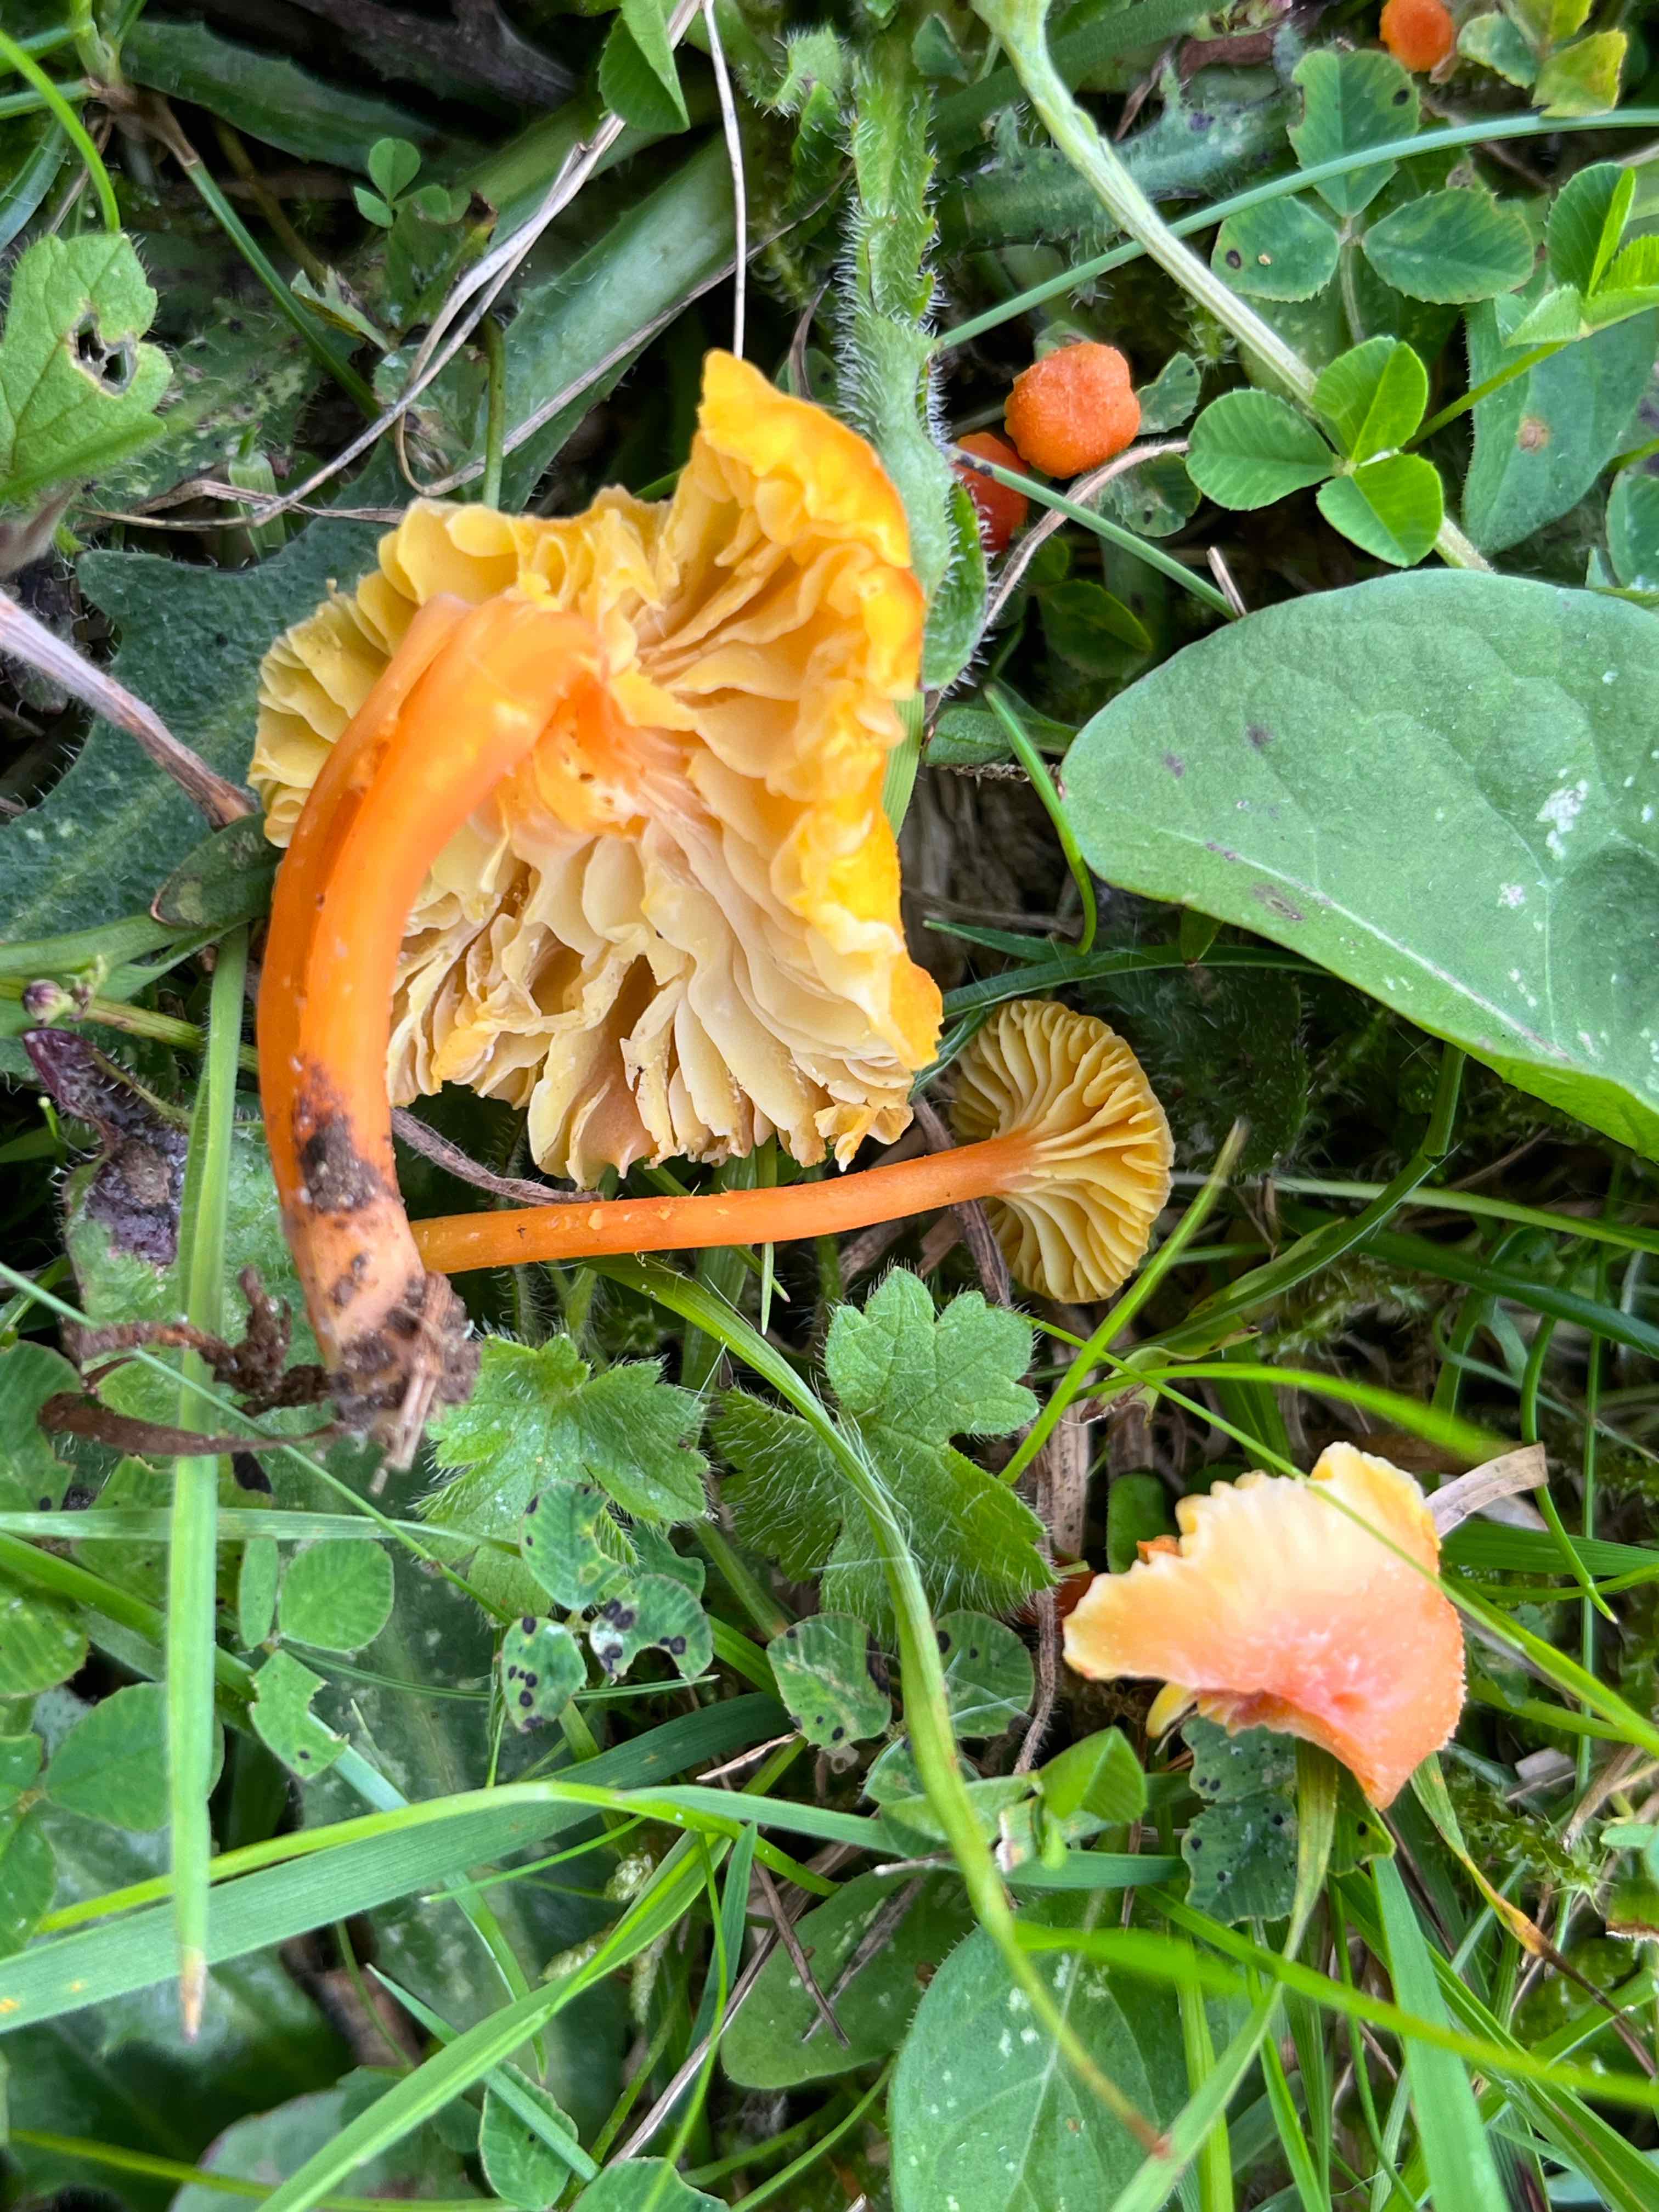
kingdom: Fungi
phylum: Basidiomycota
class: Agaricomycetes
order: Agaricales
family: Hygrophoraceae
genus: Hygrocybe
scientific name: Hygrocybe cantharellus
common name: kantarel-vokshat
